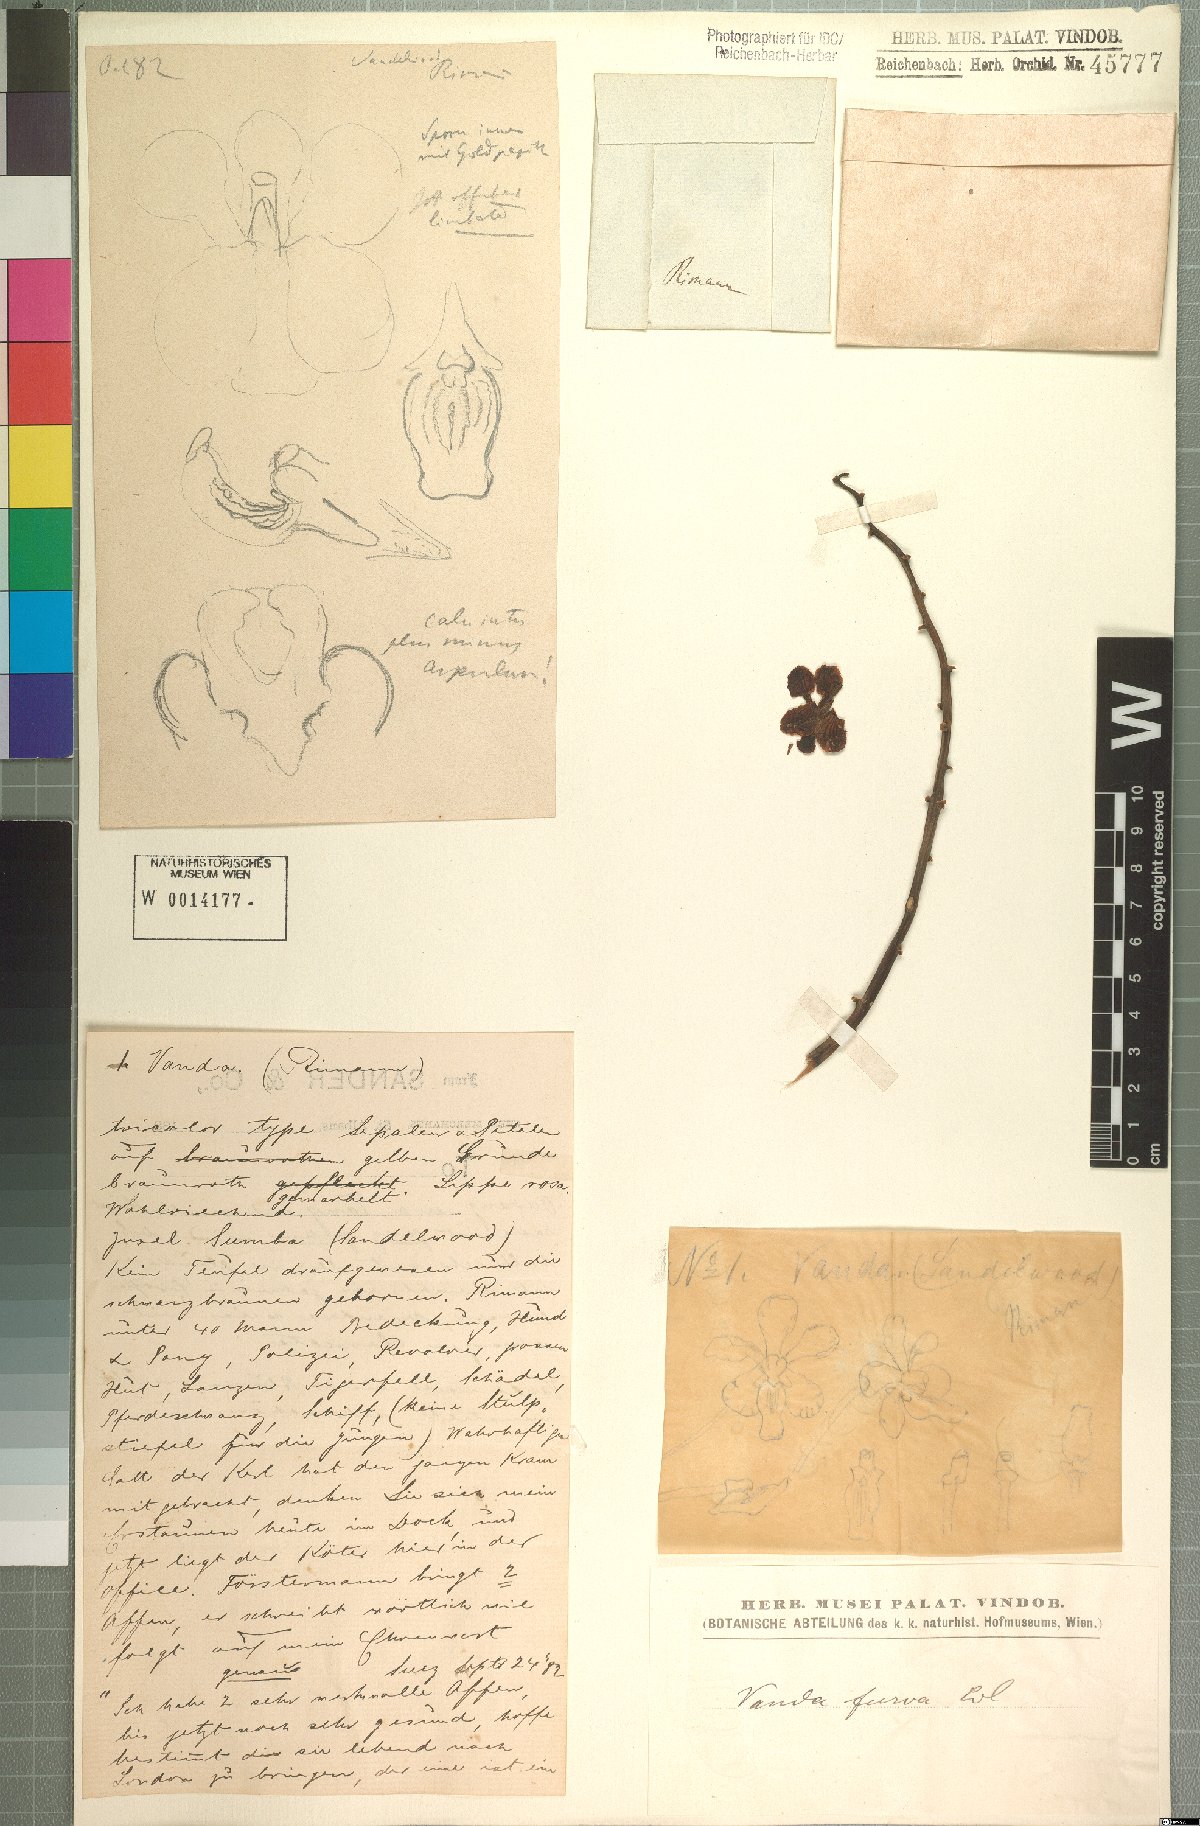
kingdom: Plantae
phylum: Tracheophyta
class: Liliopsida
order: Asparagales
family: Orchidaceae
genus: Vanda
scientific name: Vanda furva
